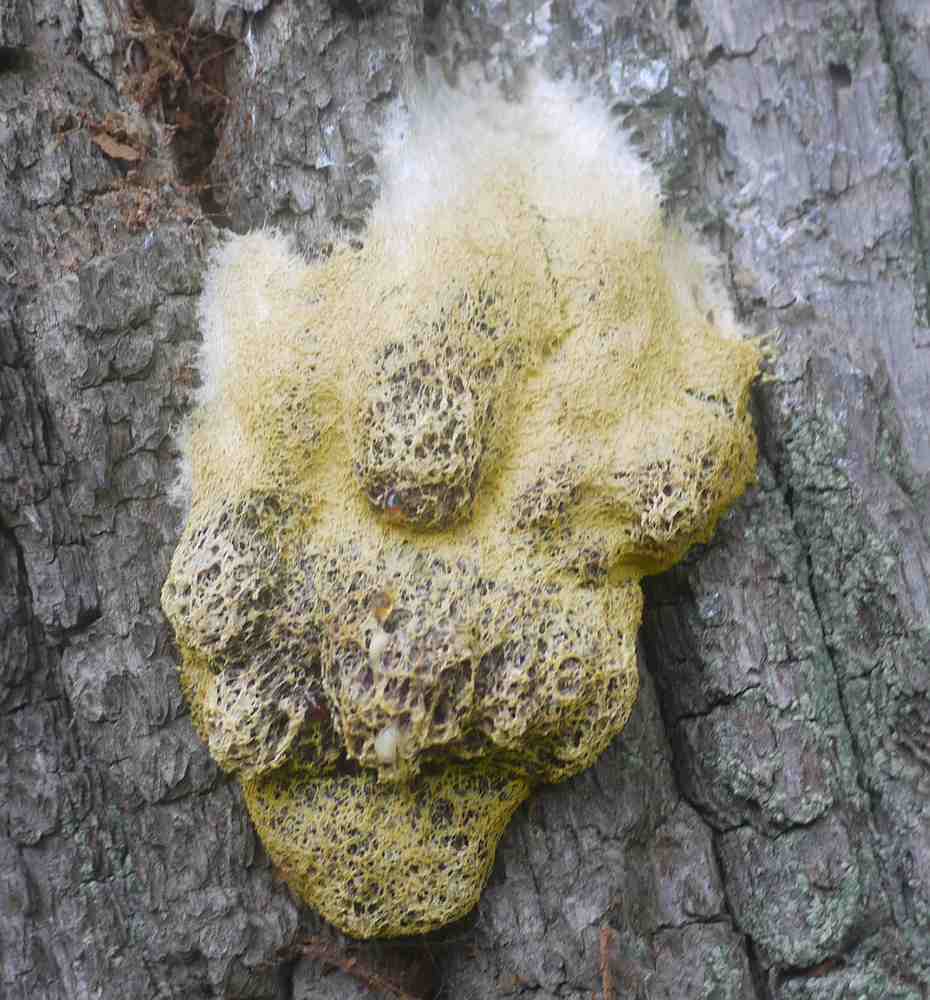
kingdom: Protozoa
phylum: Mycetozoa
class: Myxomycetes
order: Physarales
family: Physaraceae
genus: Fuligo
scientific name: Fuligo septica
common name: gul troldsmør
